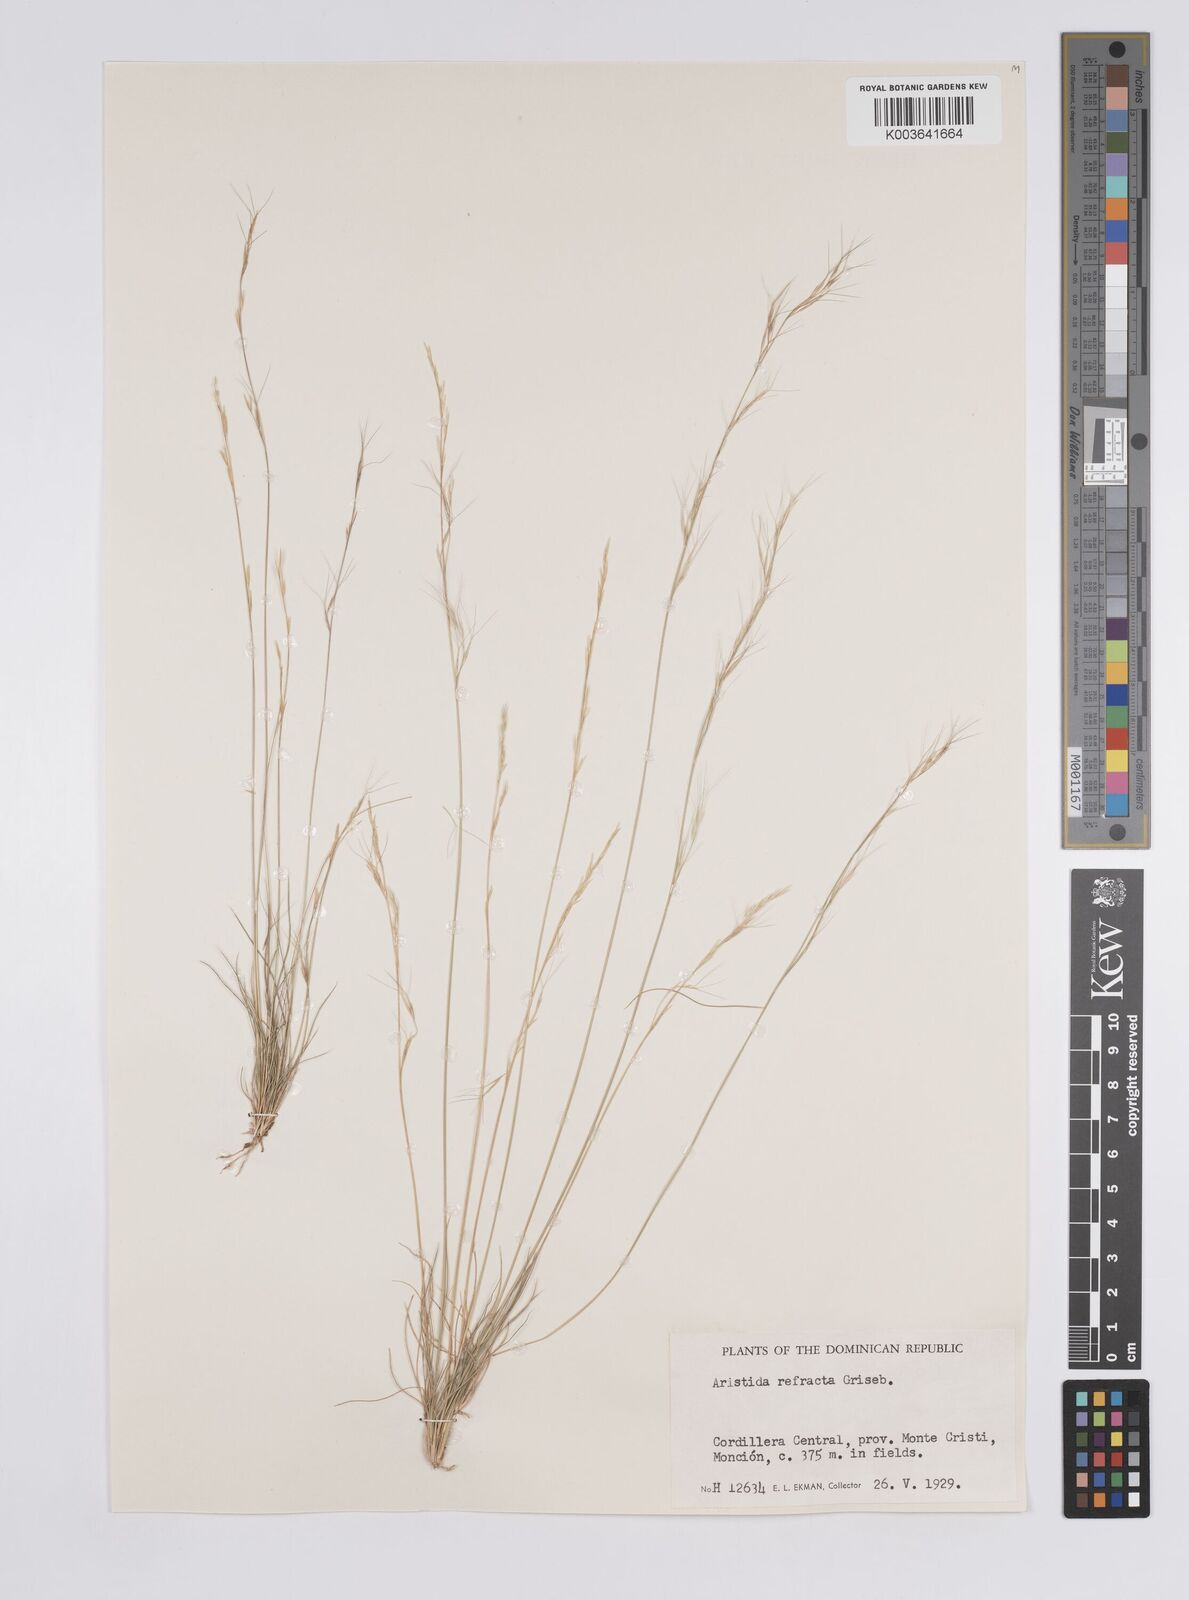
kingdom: Plantae
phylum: Tracheophyta
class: Liliopsida
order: Poales
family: Poaceae
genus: Aristida
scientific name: Aristida refracta
